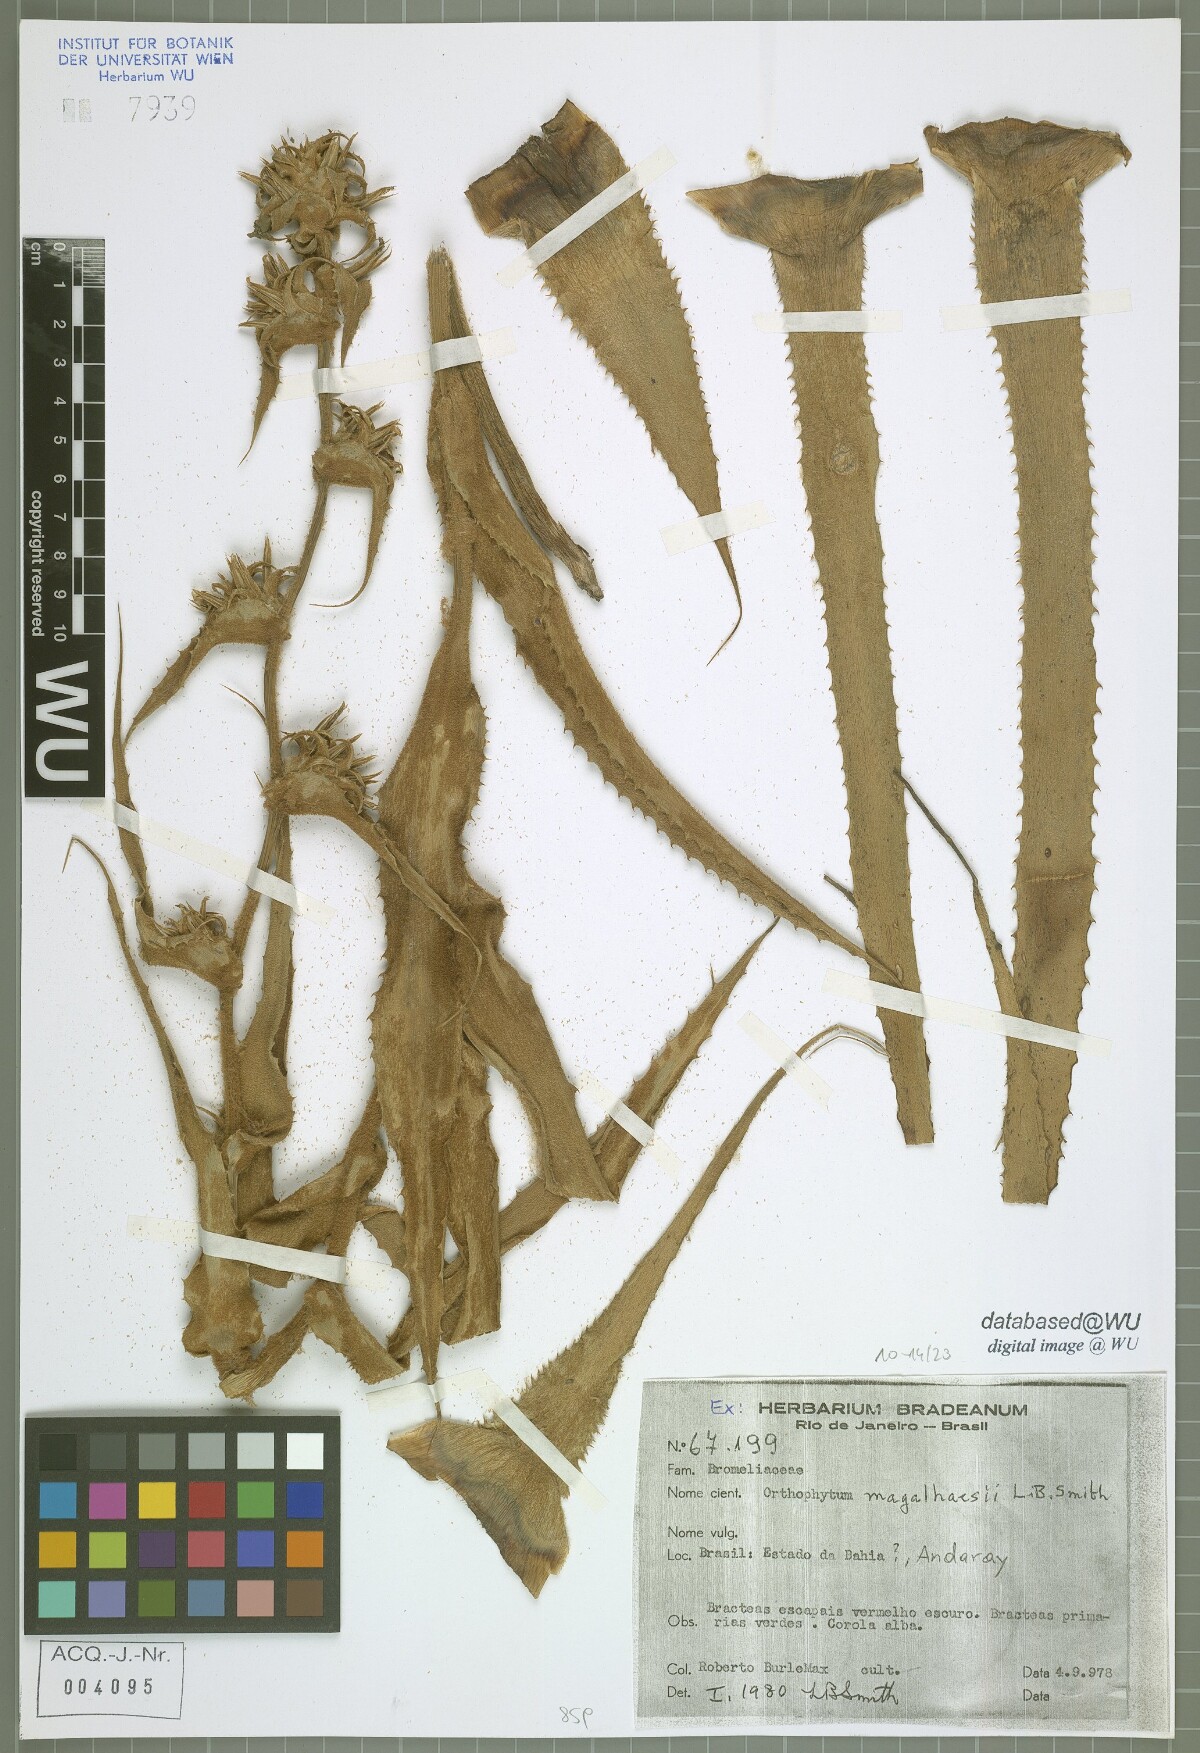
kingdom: Plantae
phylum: Tracheophyta
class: Liliopsida
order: Poales
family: Bromeliaceae
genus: Orthophytum
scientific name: Orthophytum magalhaesii
